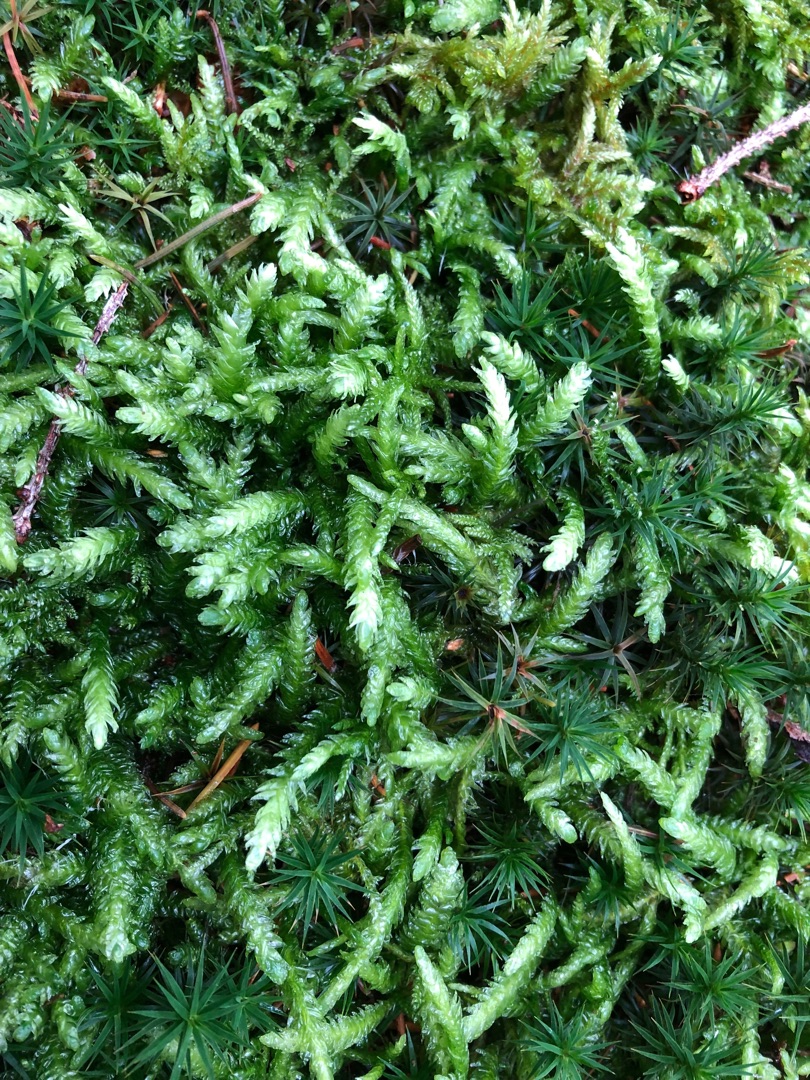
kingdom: Plantae
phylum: Bryophyta
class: Bryopsida
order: Hypnales
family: Plagiotheciaceae
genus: Plagiothecium
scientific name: Plagiothecium undulatum
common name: Bølget tæppemos
